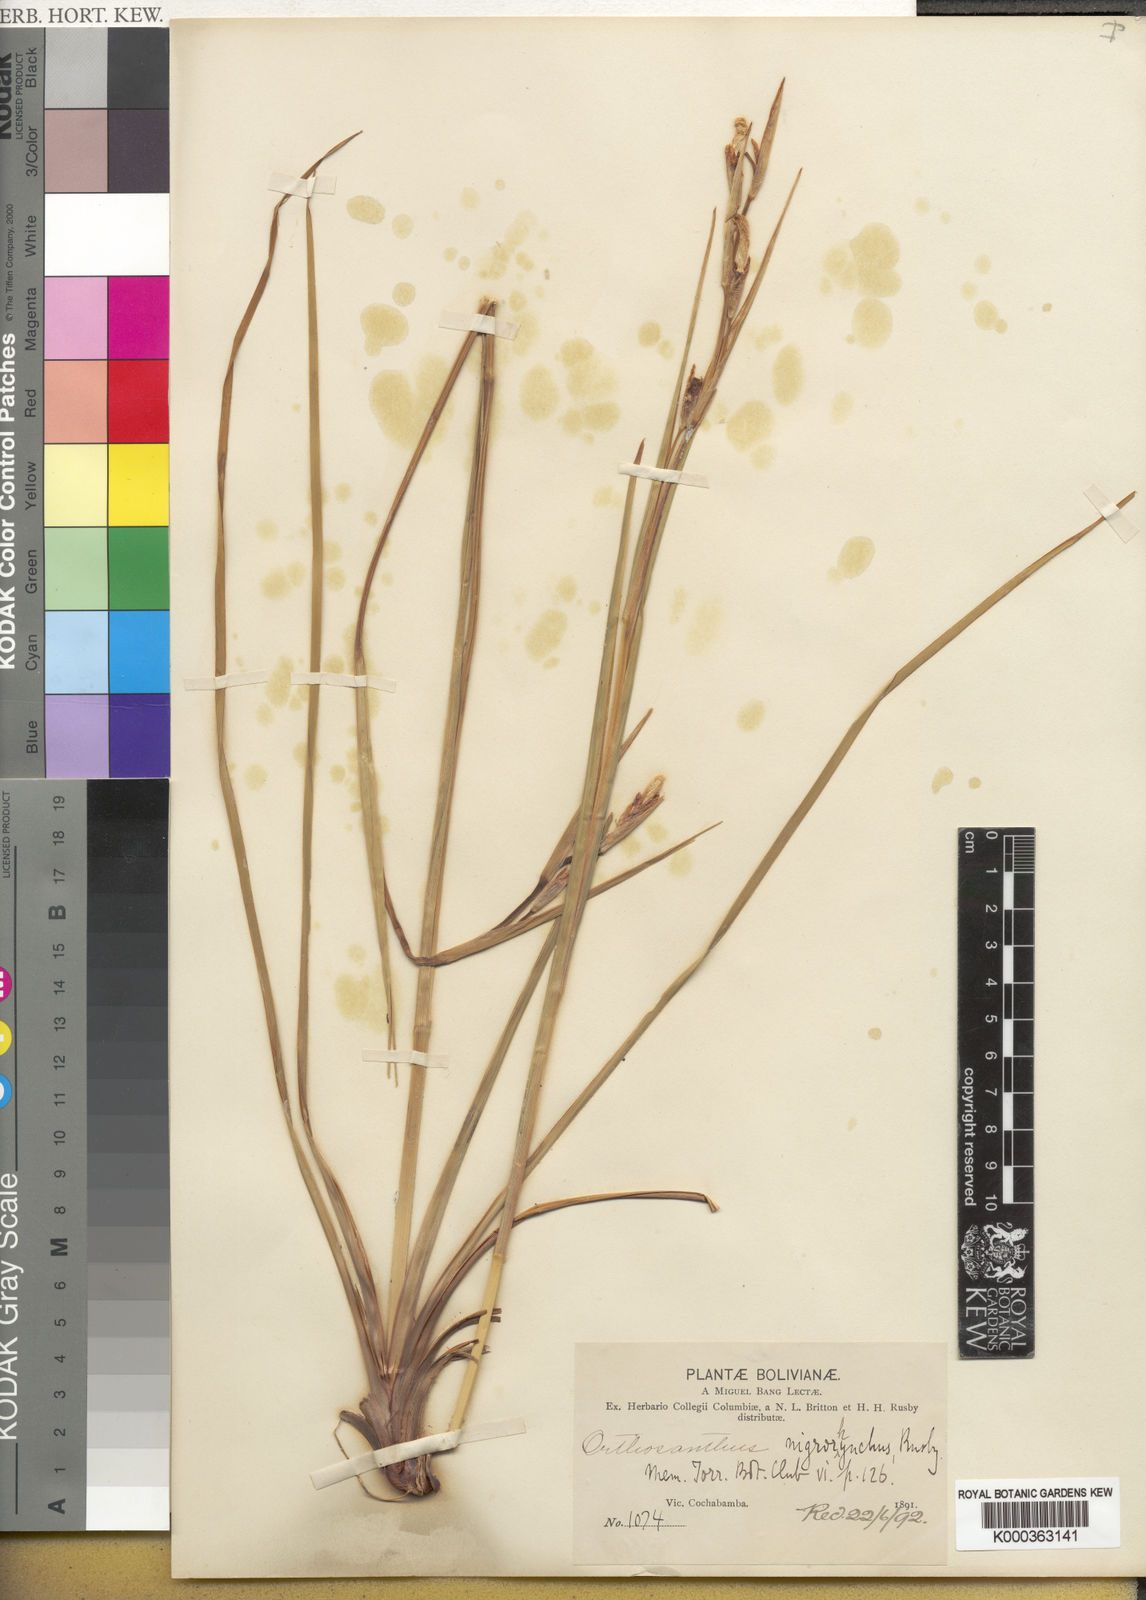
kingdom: Plantae
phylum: Tracheophyta
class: Liliopsida
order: Asparagales
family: Iridaceae
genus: Orthrosanthus
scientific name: Orthrosanthus occissapungus
